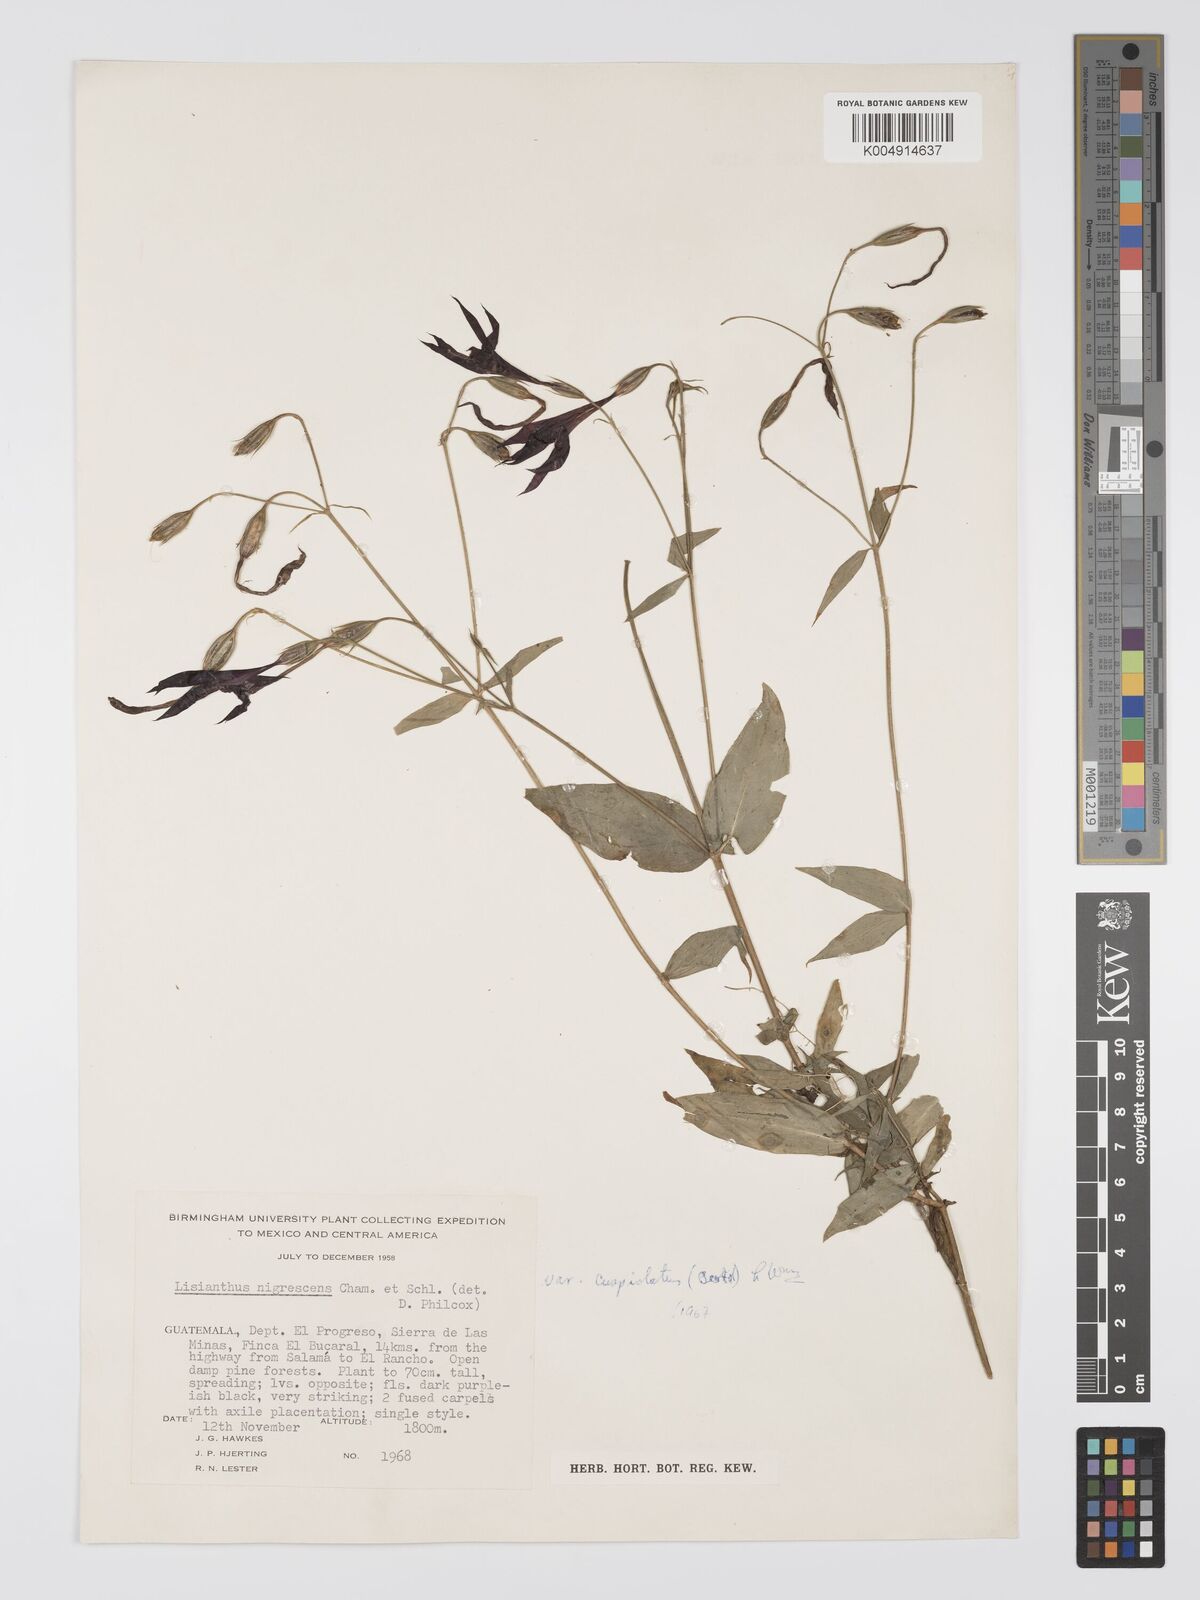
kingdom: Plantae
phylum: Tracheophyta
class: Magnoliopsida
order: Gentianales
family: Gentianaceae
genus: Lisianthius
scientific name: Lisianthius cuspidatus
